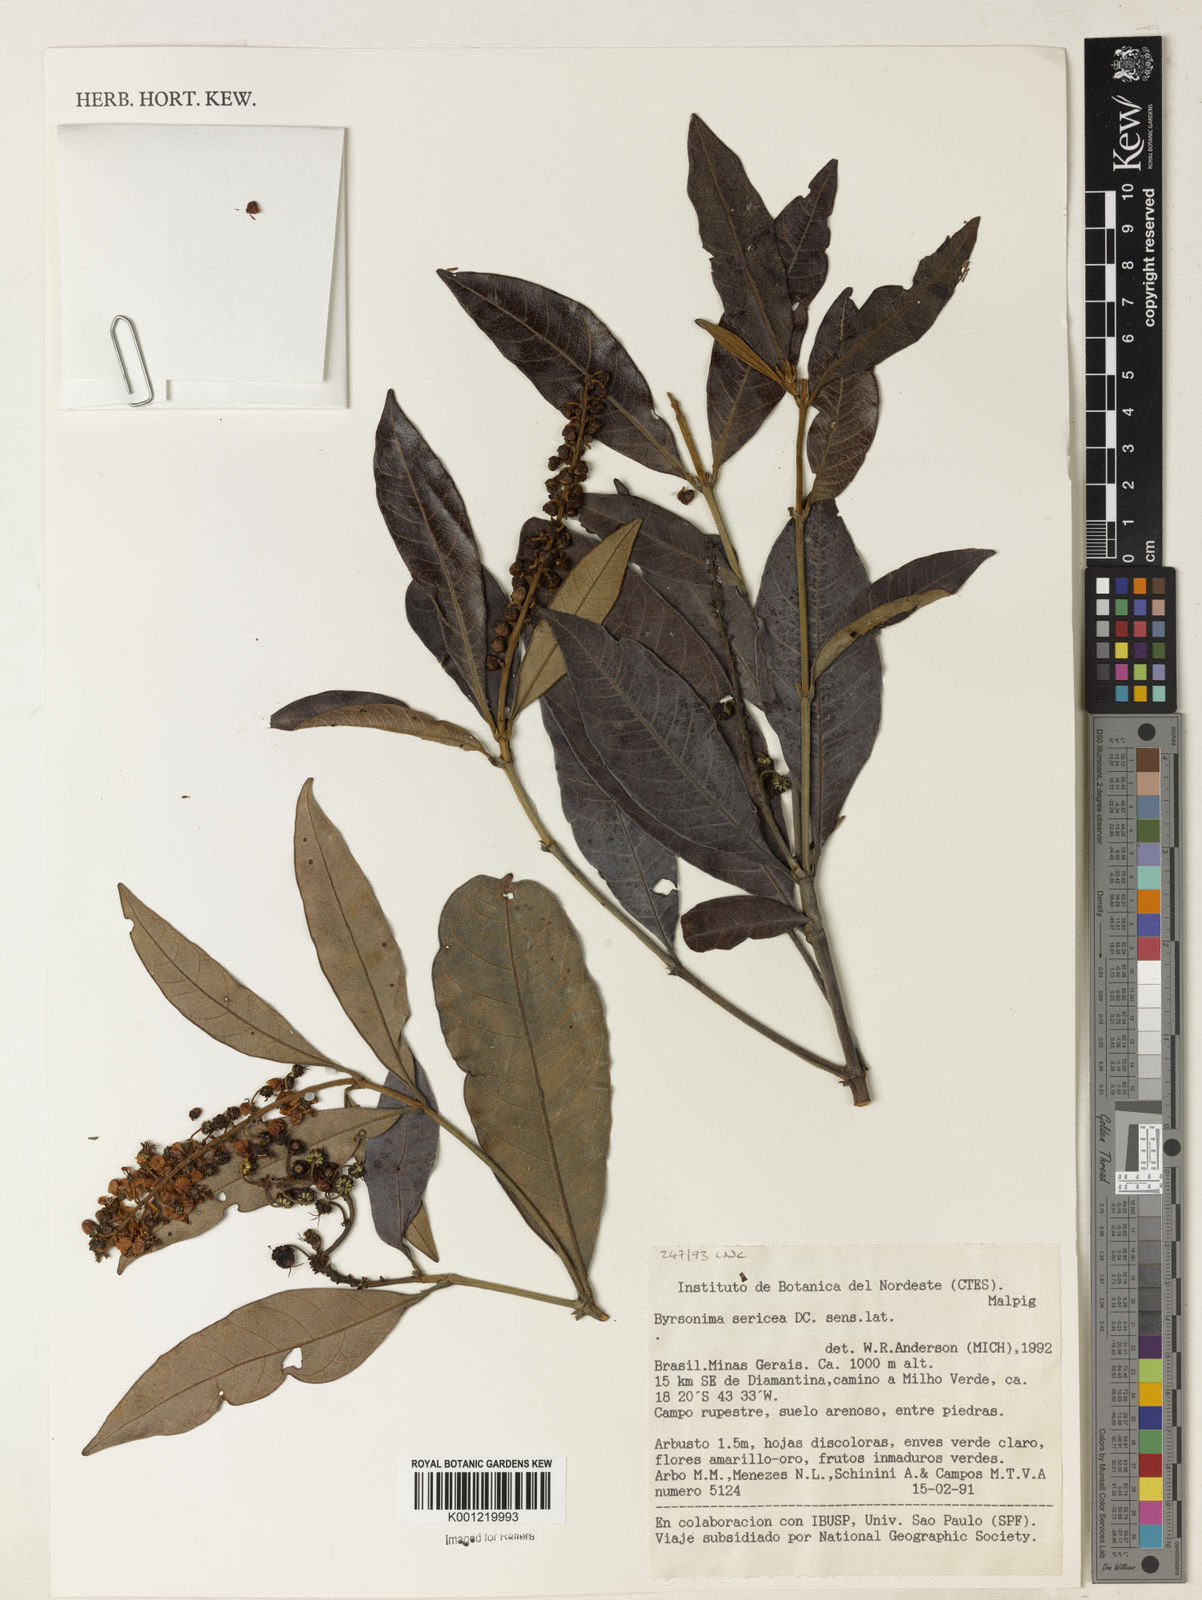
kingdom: Plantae
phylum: Tracheophyta
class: Magnoliopsida
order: Malpighiales
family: Malpighiaceae
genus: Byrsonima
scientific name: Byrsonima sericea
